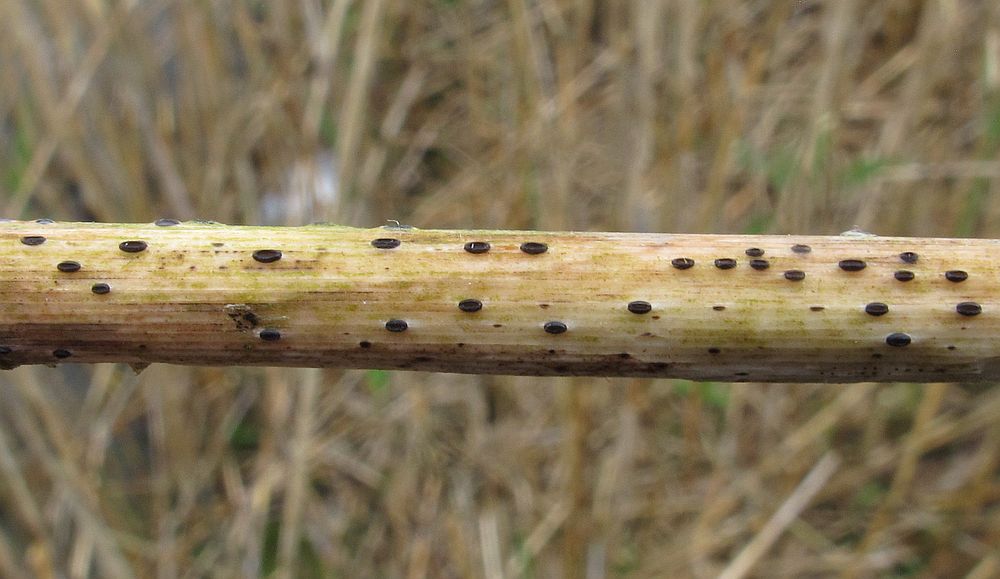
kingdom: Fungi
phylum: Ascomycota
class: Leotiomycetes
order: Rhytismatales
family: Rhytismataceae
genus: Lophodermium
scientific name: Lophodermium arundinaceum
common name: almindelig fureplet
